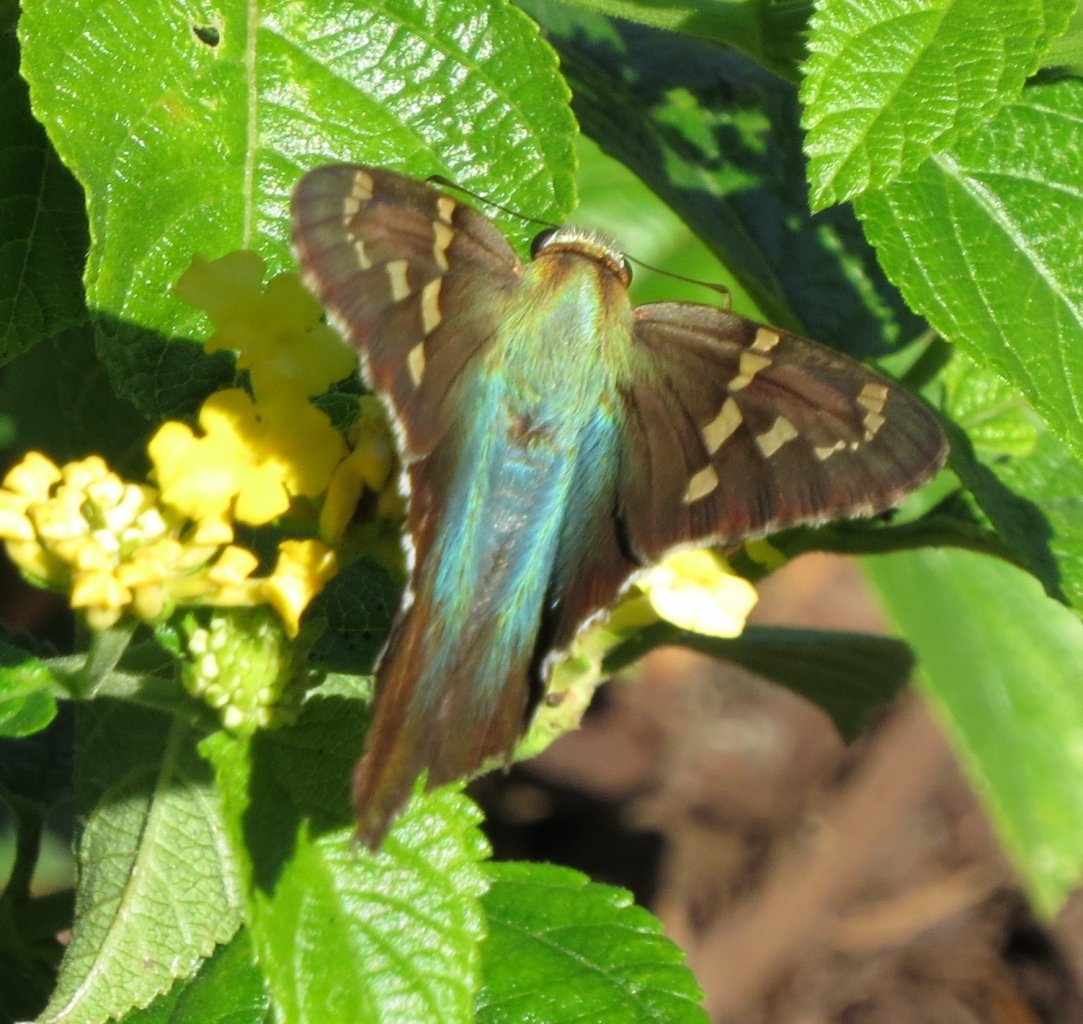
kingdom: Animalia
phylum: Arthropoda
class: Insecta
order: Lepidoptera
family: Hesperiidae
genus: Urbanus
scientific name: Urbanus proteus
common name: Long-tailed Skipper
